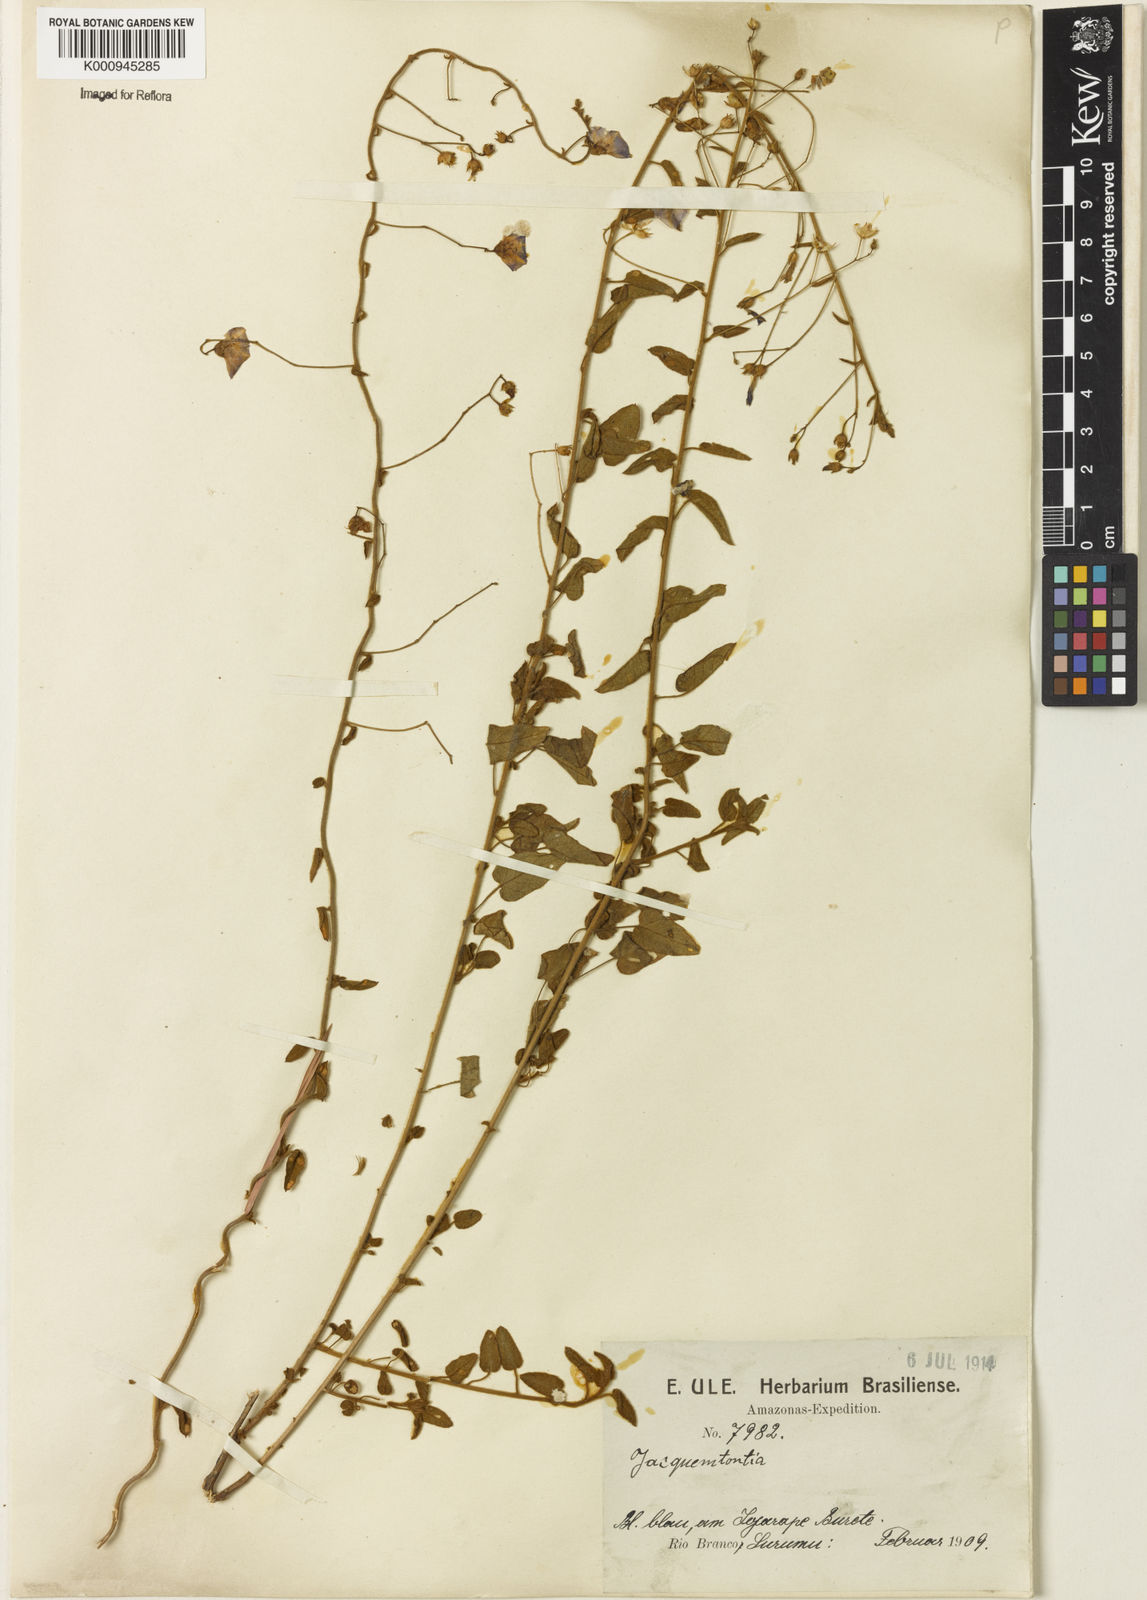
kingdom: Plantae
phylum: Tracheophyta
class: Magnoliopsida
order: Solanales
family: Convolvulaceae
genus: Jacquemontia
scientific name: Jacquemontia evolvuloides
